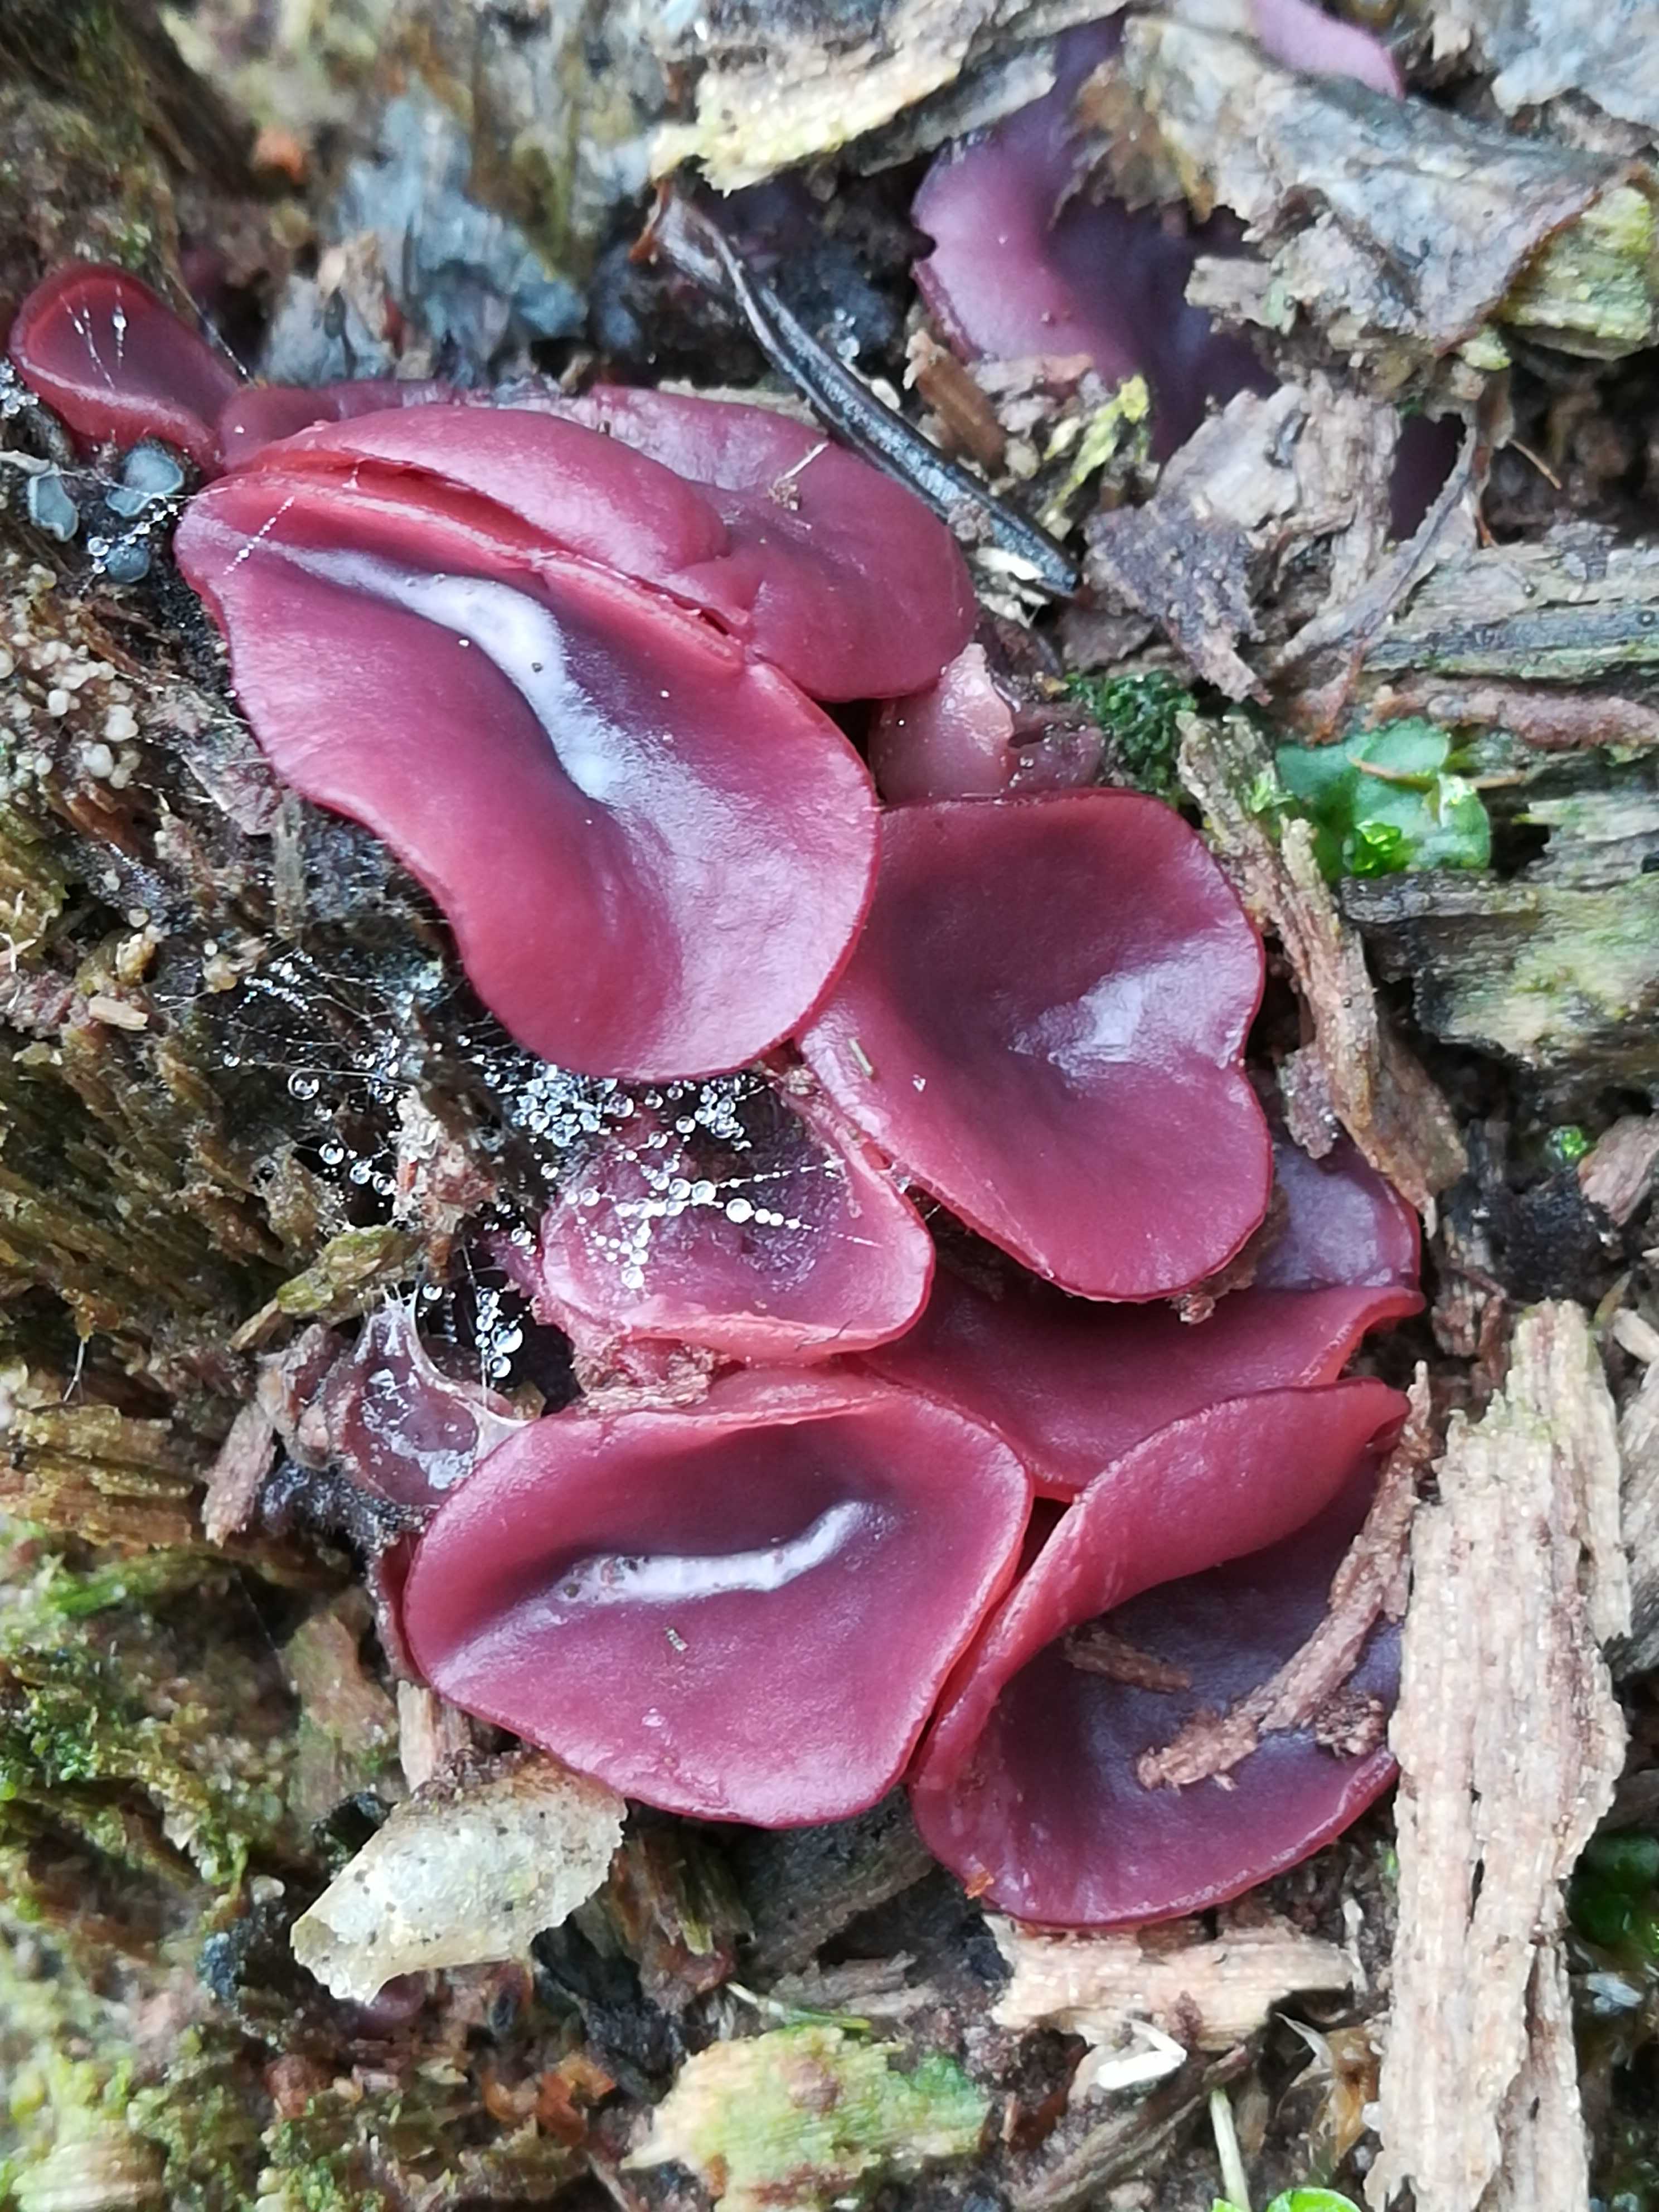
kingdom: Fungi
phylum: Ascomycota
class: Leotiomycetes
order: Helotiales
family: Gelatinodiscaceae
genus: Ascocoryne
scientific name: Ascocoryne cylichnium
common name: stor sejskive
